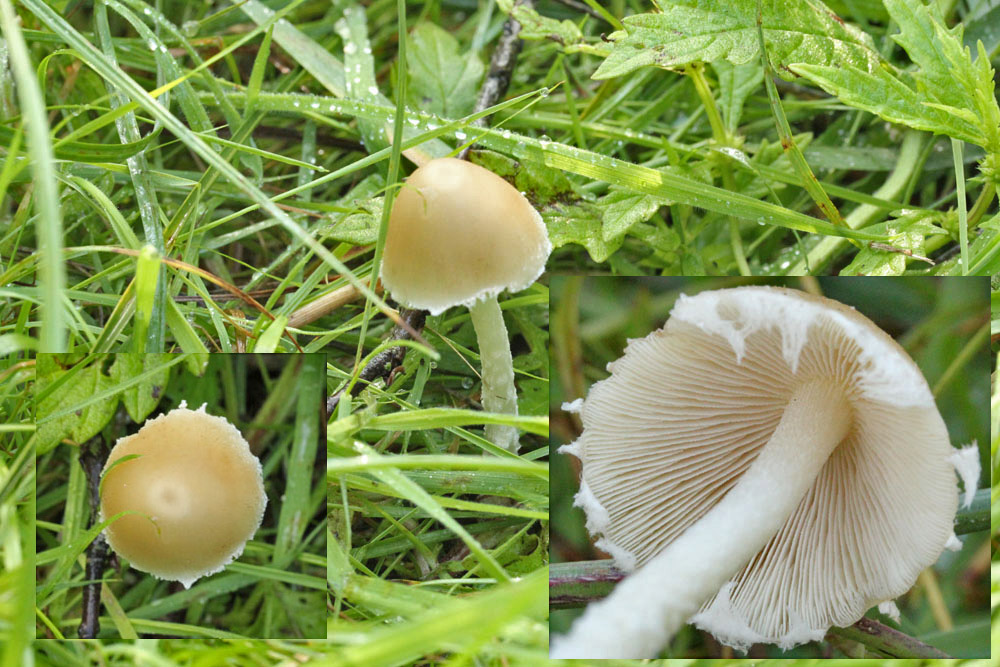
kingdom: Fungi
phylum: Basidiomycota
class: Agaricomycetes
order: Agaricales
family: Psathyrellaceae
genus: Candolleomyces
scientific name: Candolleomyces candolleanus
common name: Candolles mørkhat
